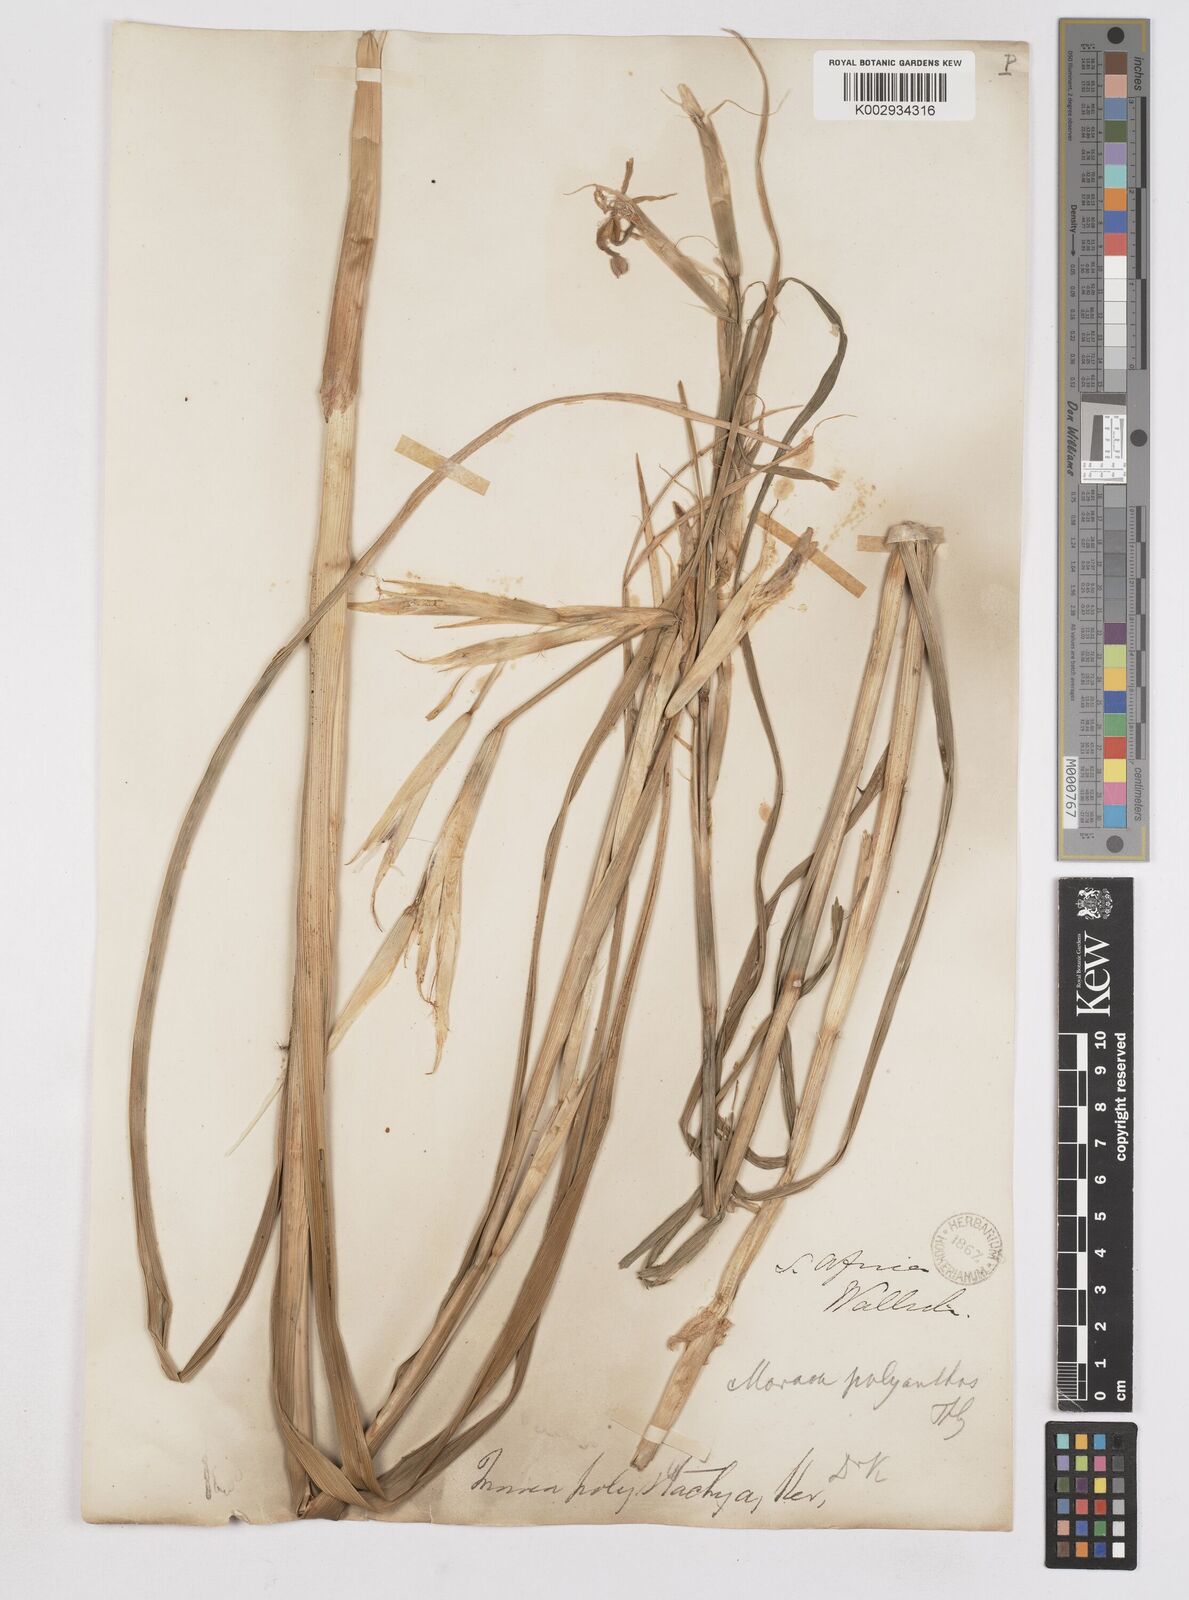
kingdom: Plantae
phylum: Tracheophyta
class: Liliopsida
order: Asparagales
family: Iridaceae
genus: Moraea
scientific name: Moraea polystachya
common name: Blue-tulip
